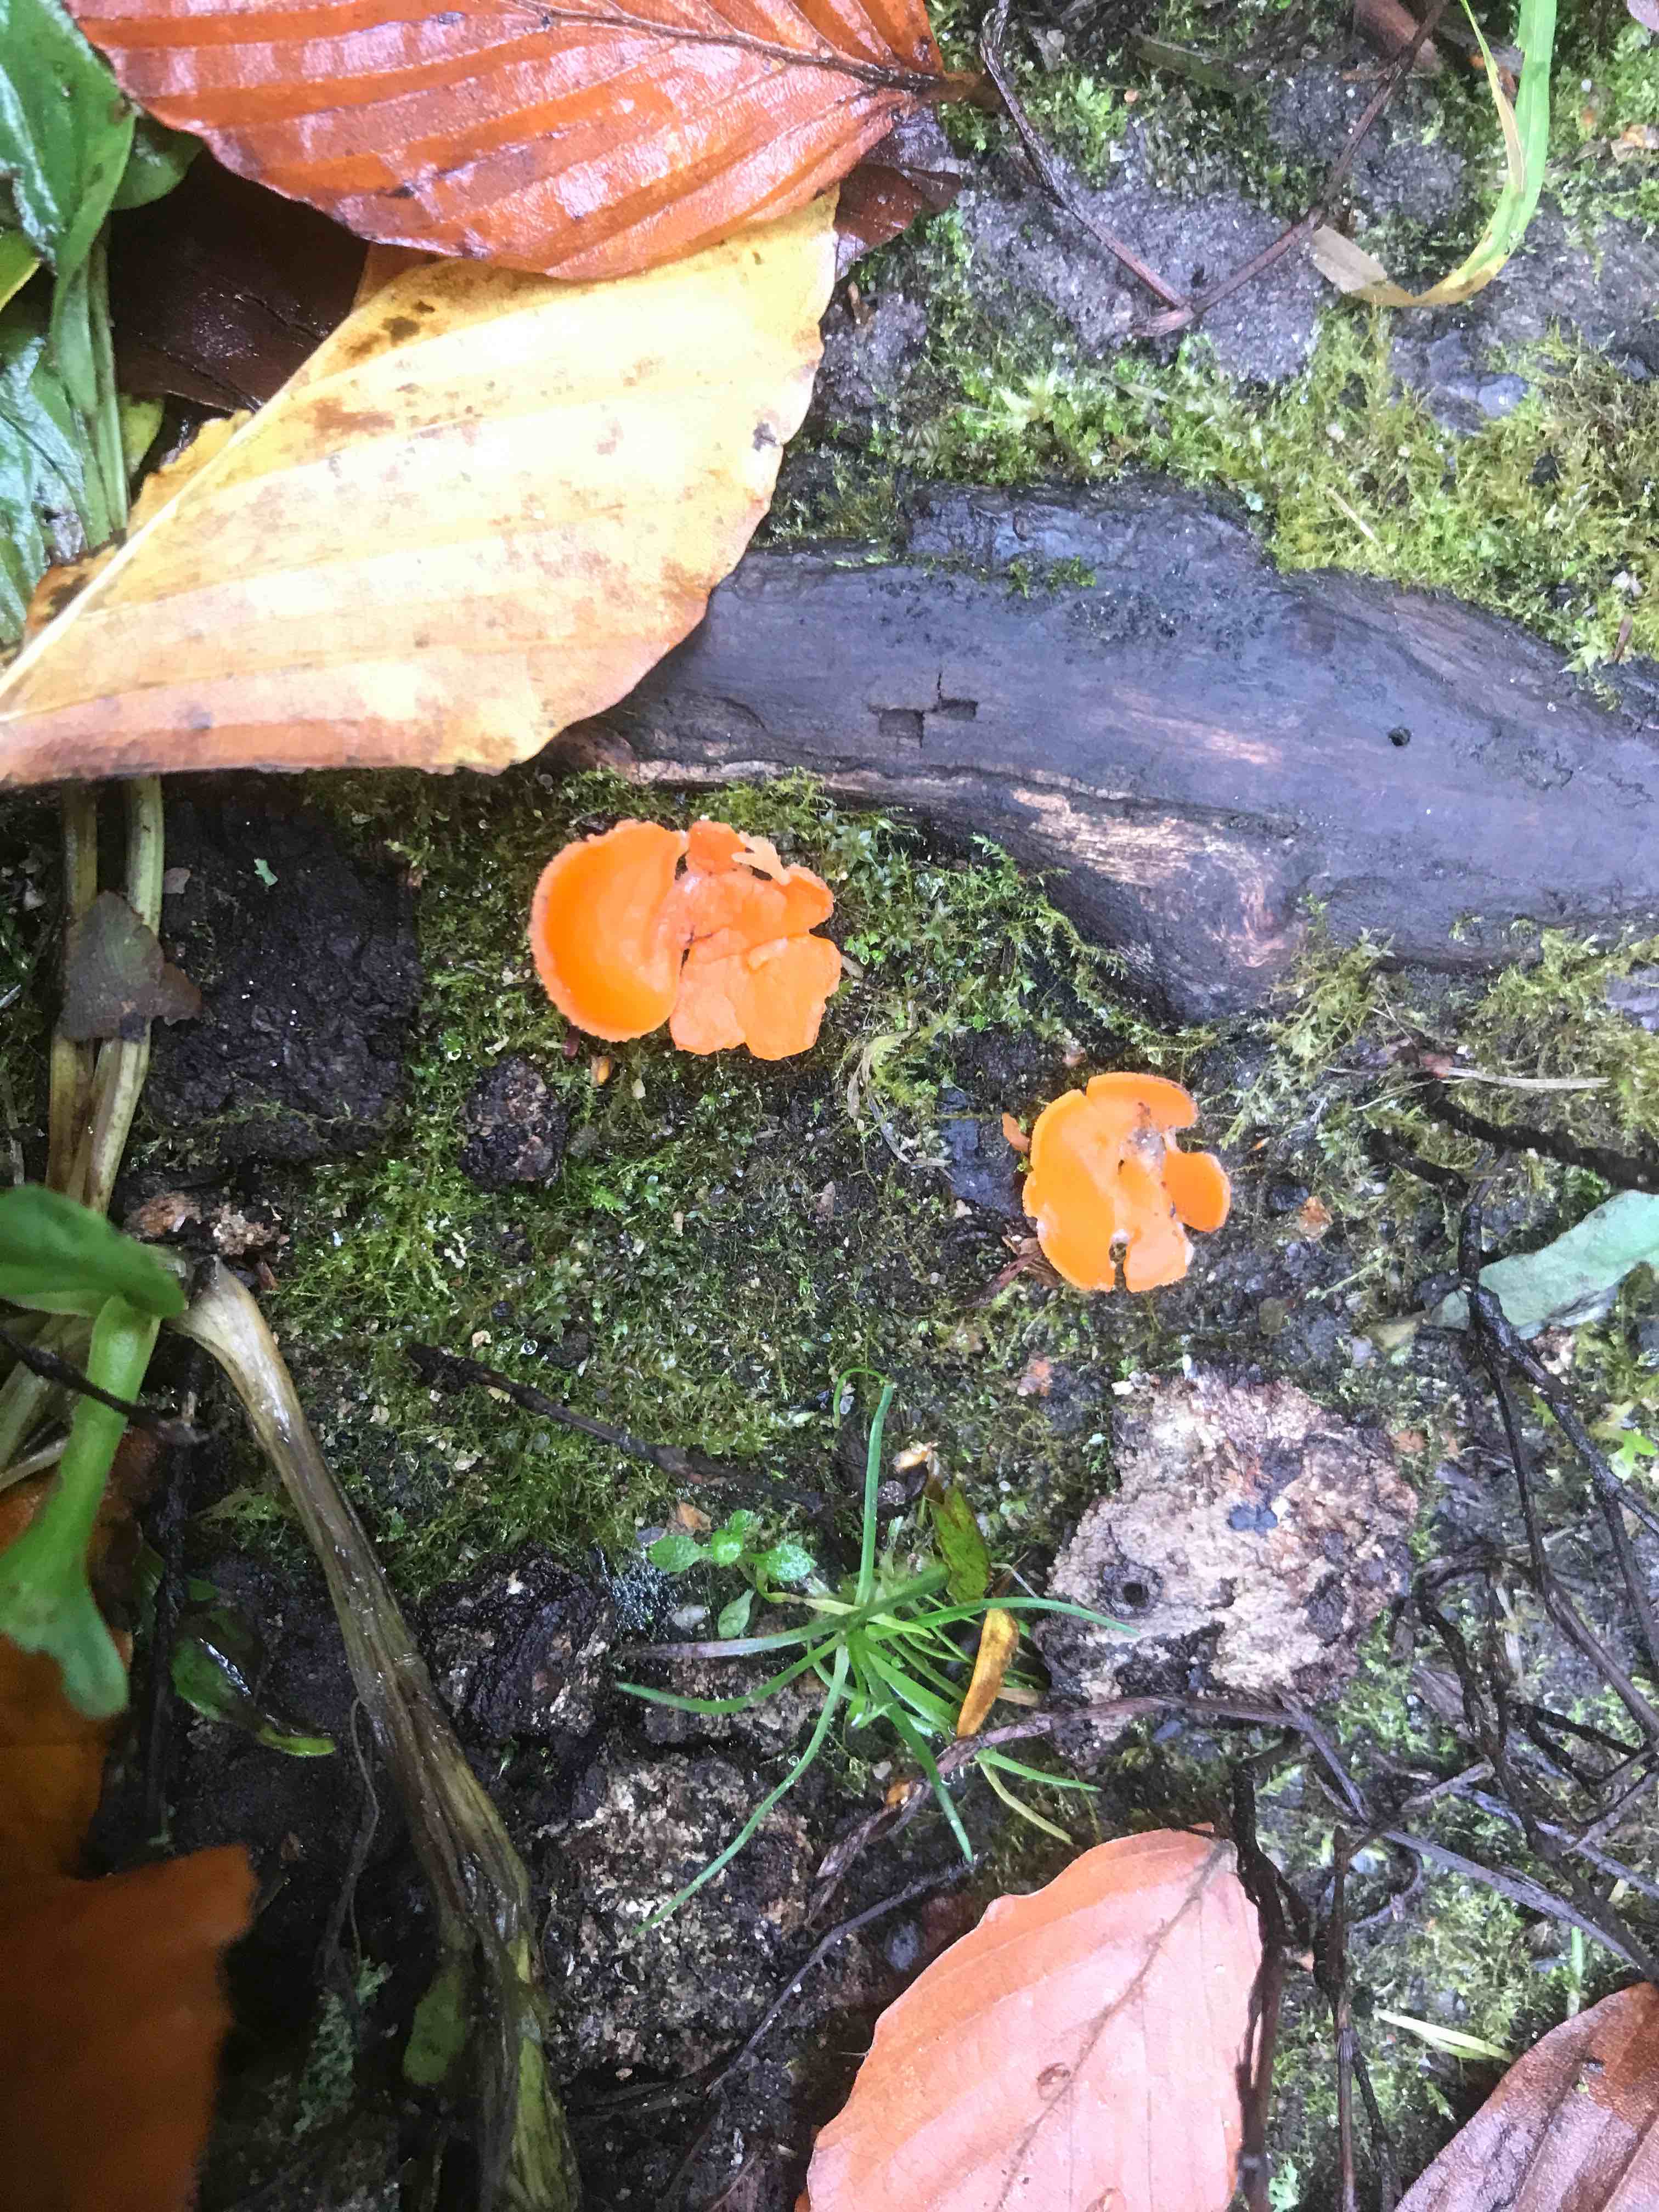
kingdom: Fungi
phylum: Ascomycota
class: Pezizomycetes
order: Pezizales
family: Pyronemataceae
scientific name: Pyronemataceae
